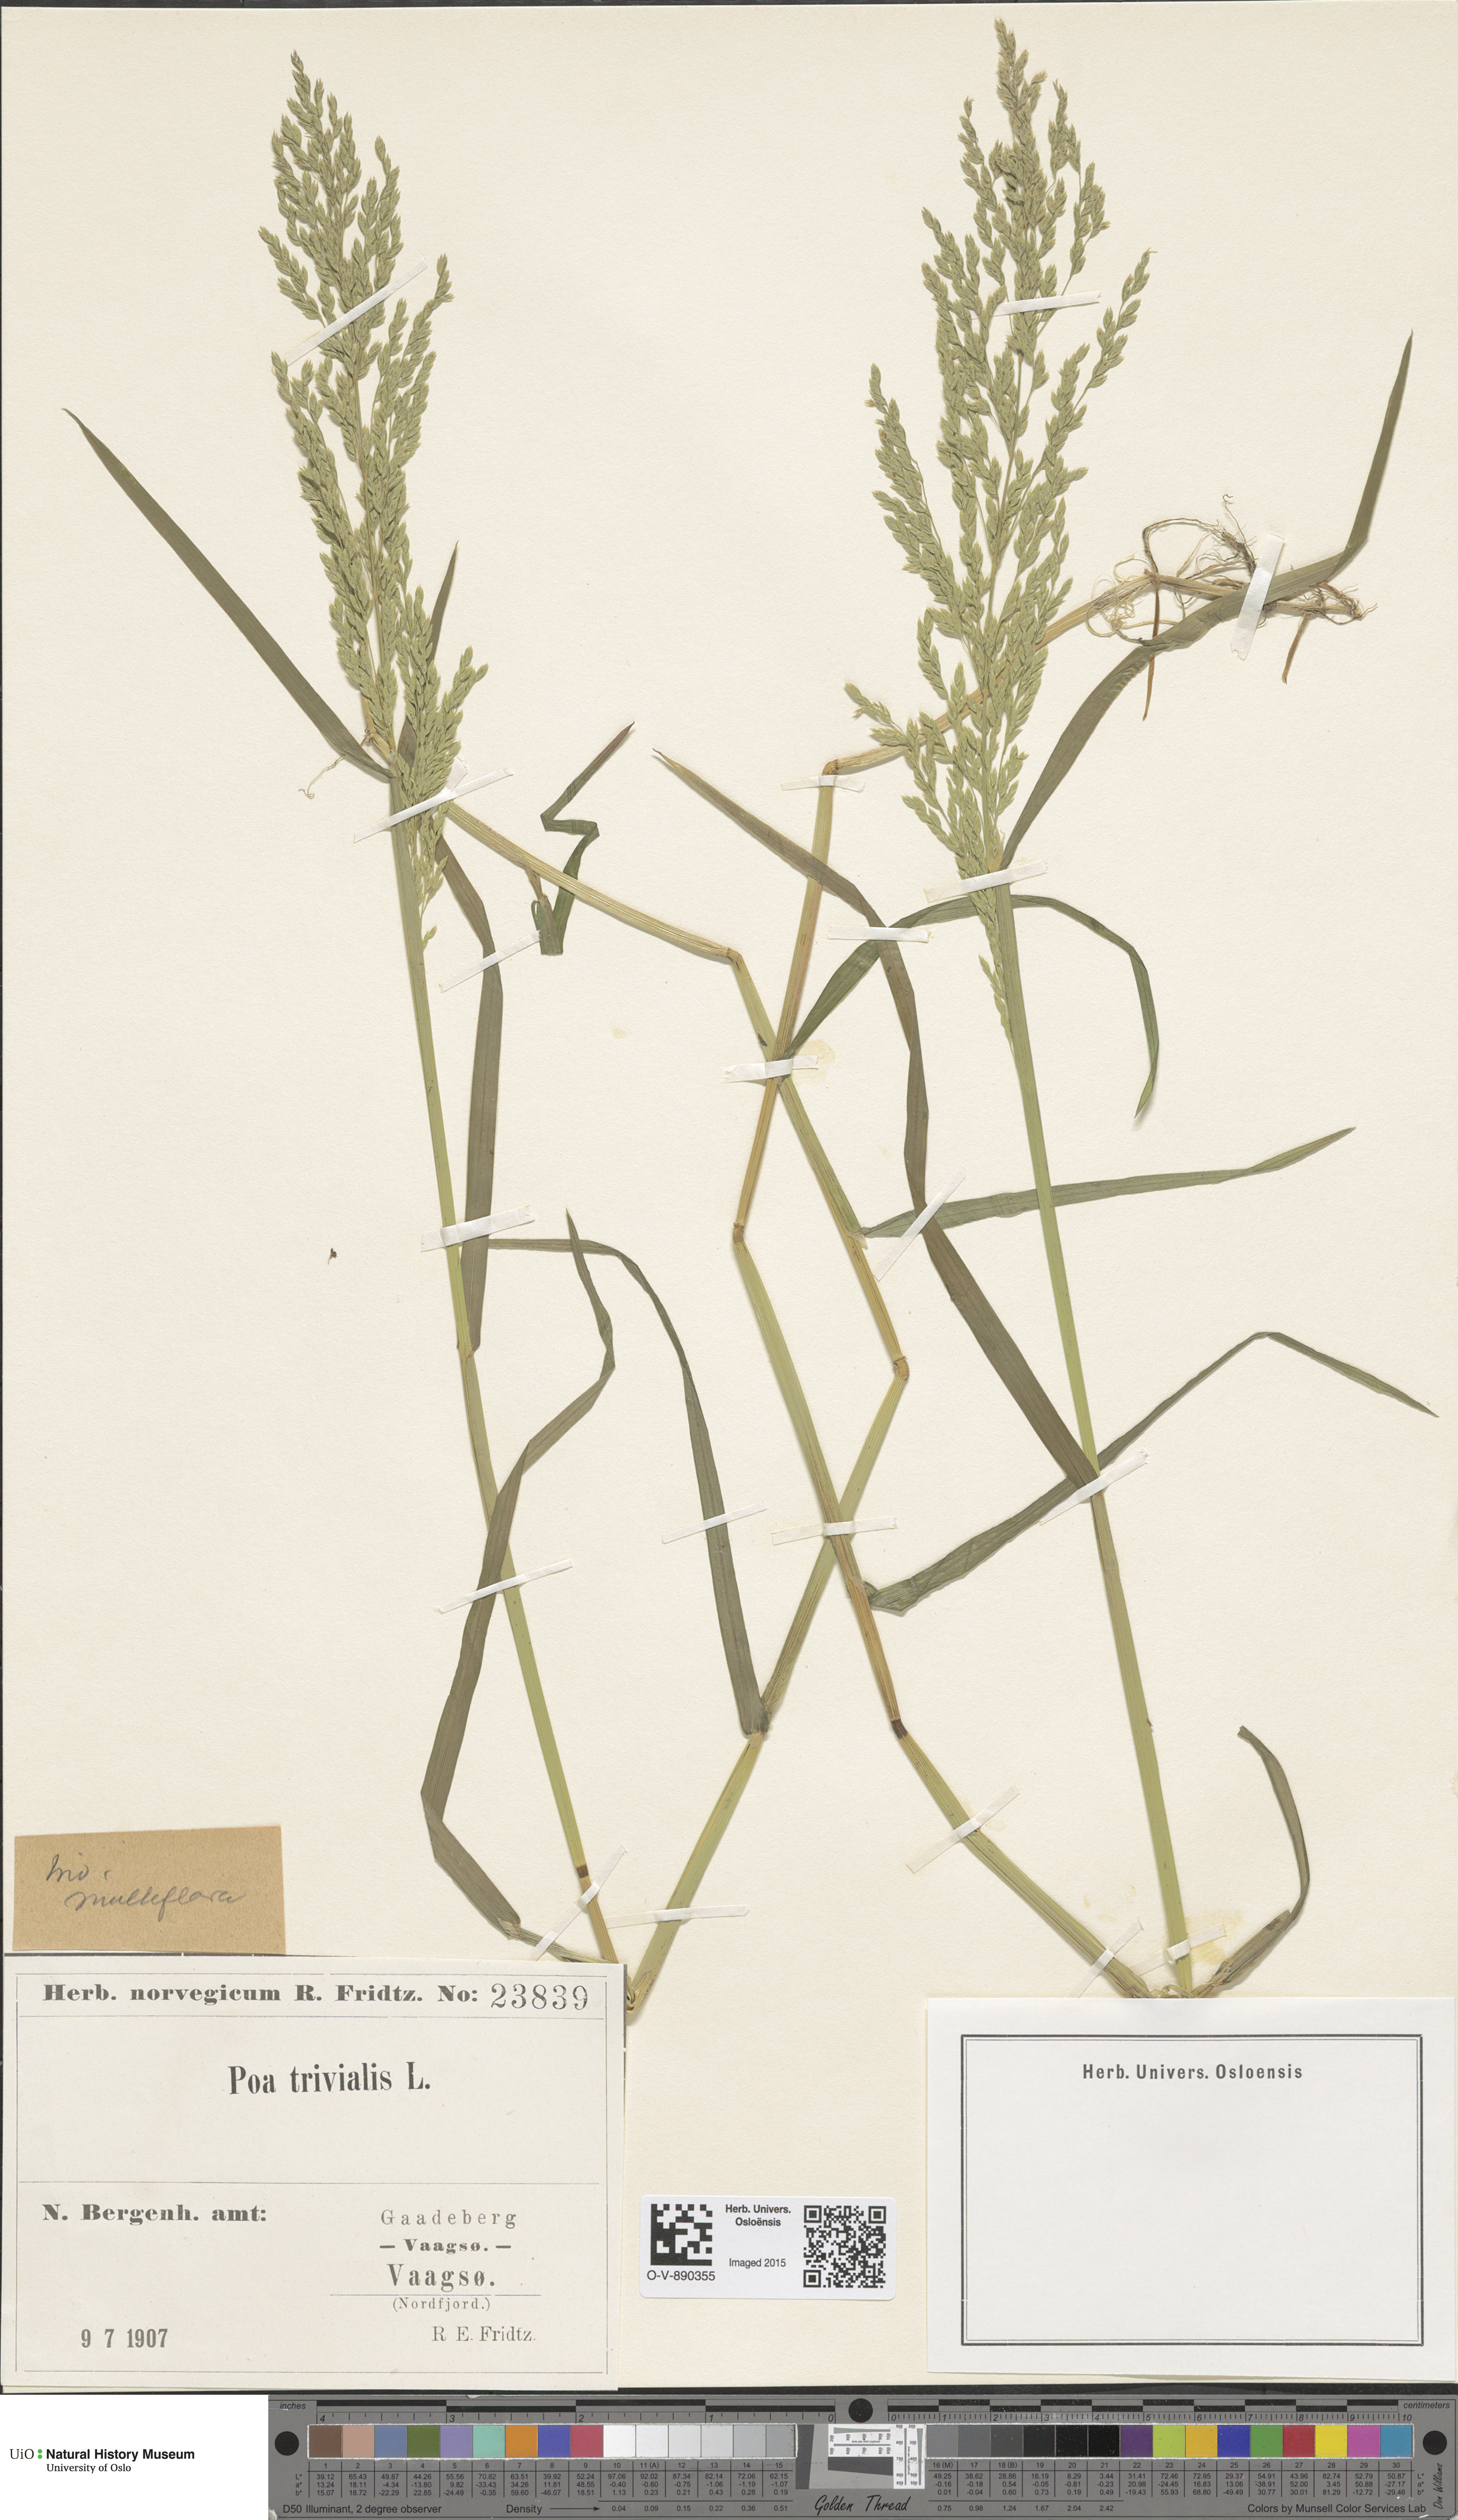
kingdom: Plantae
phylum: Tracheophyta
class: Liliopsida
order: Poales
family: Poaceae
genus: Poa
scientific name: Poa trivialis
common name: Rough bluegrass
